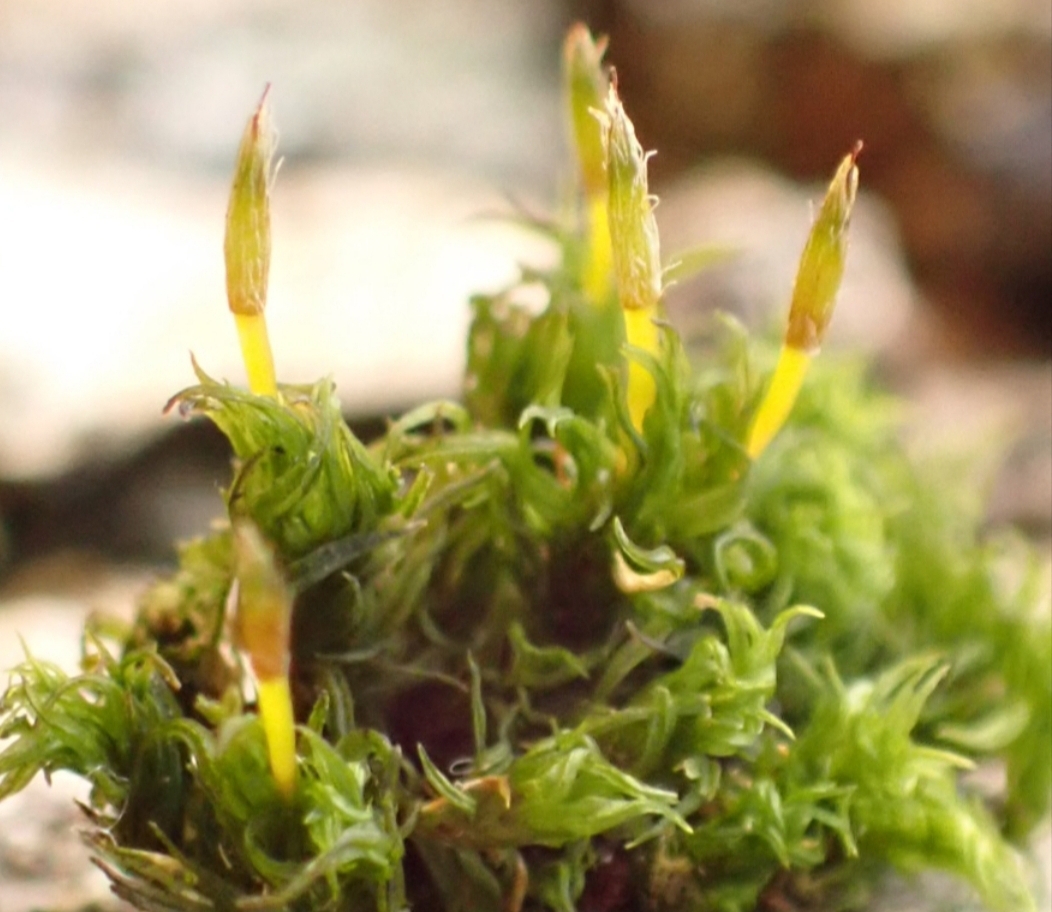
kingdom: Plantae
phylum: Bryophyta
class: Bryopsida
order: Orthotrichales
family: Orthotrichaceae
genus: Ulota
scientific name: Ulota
